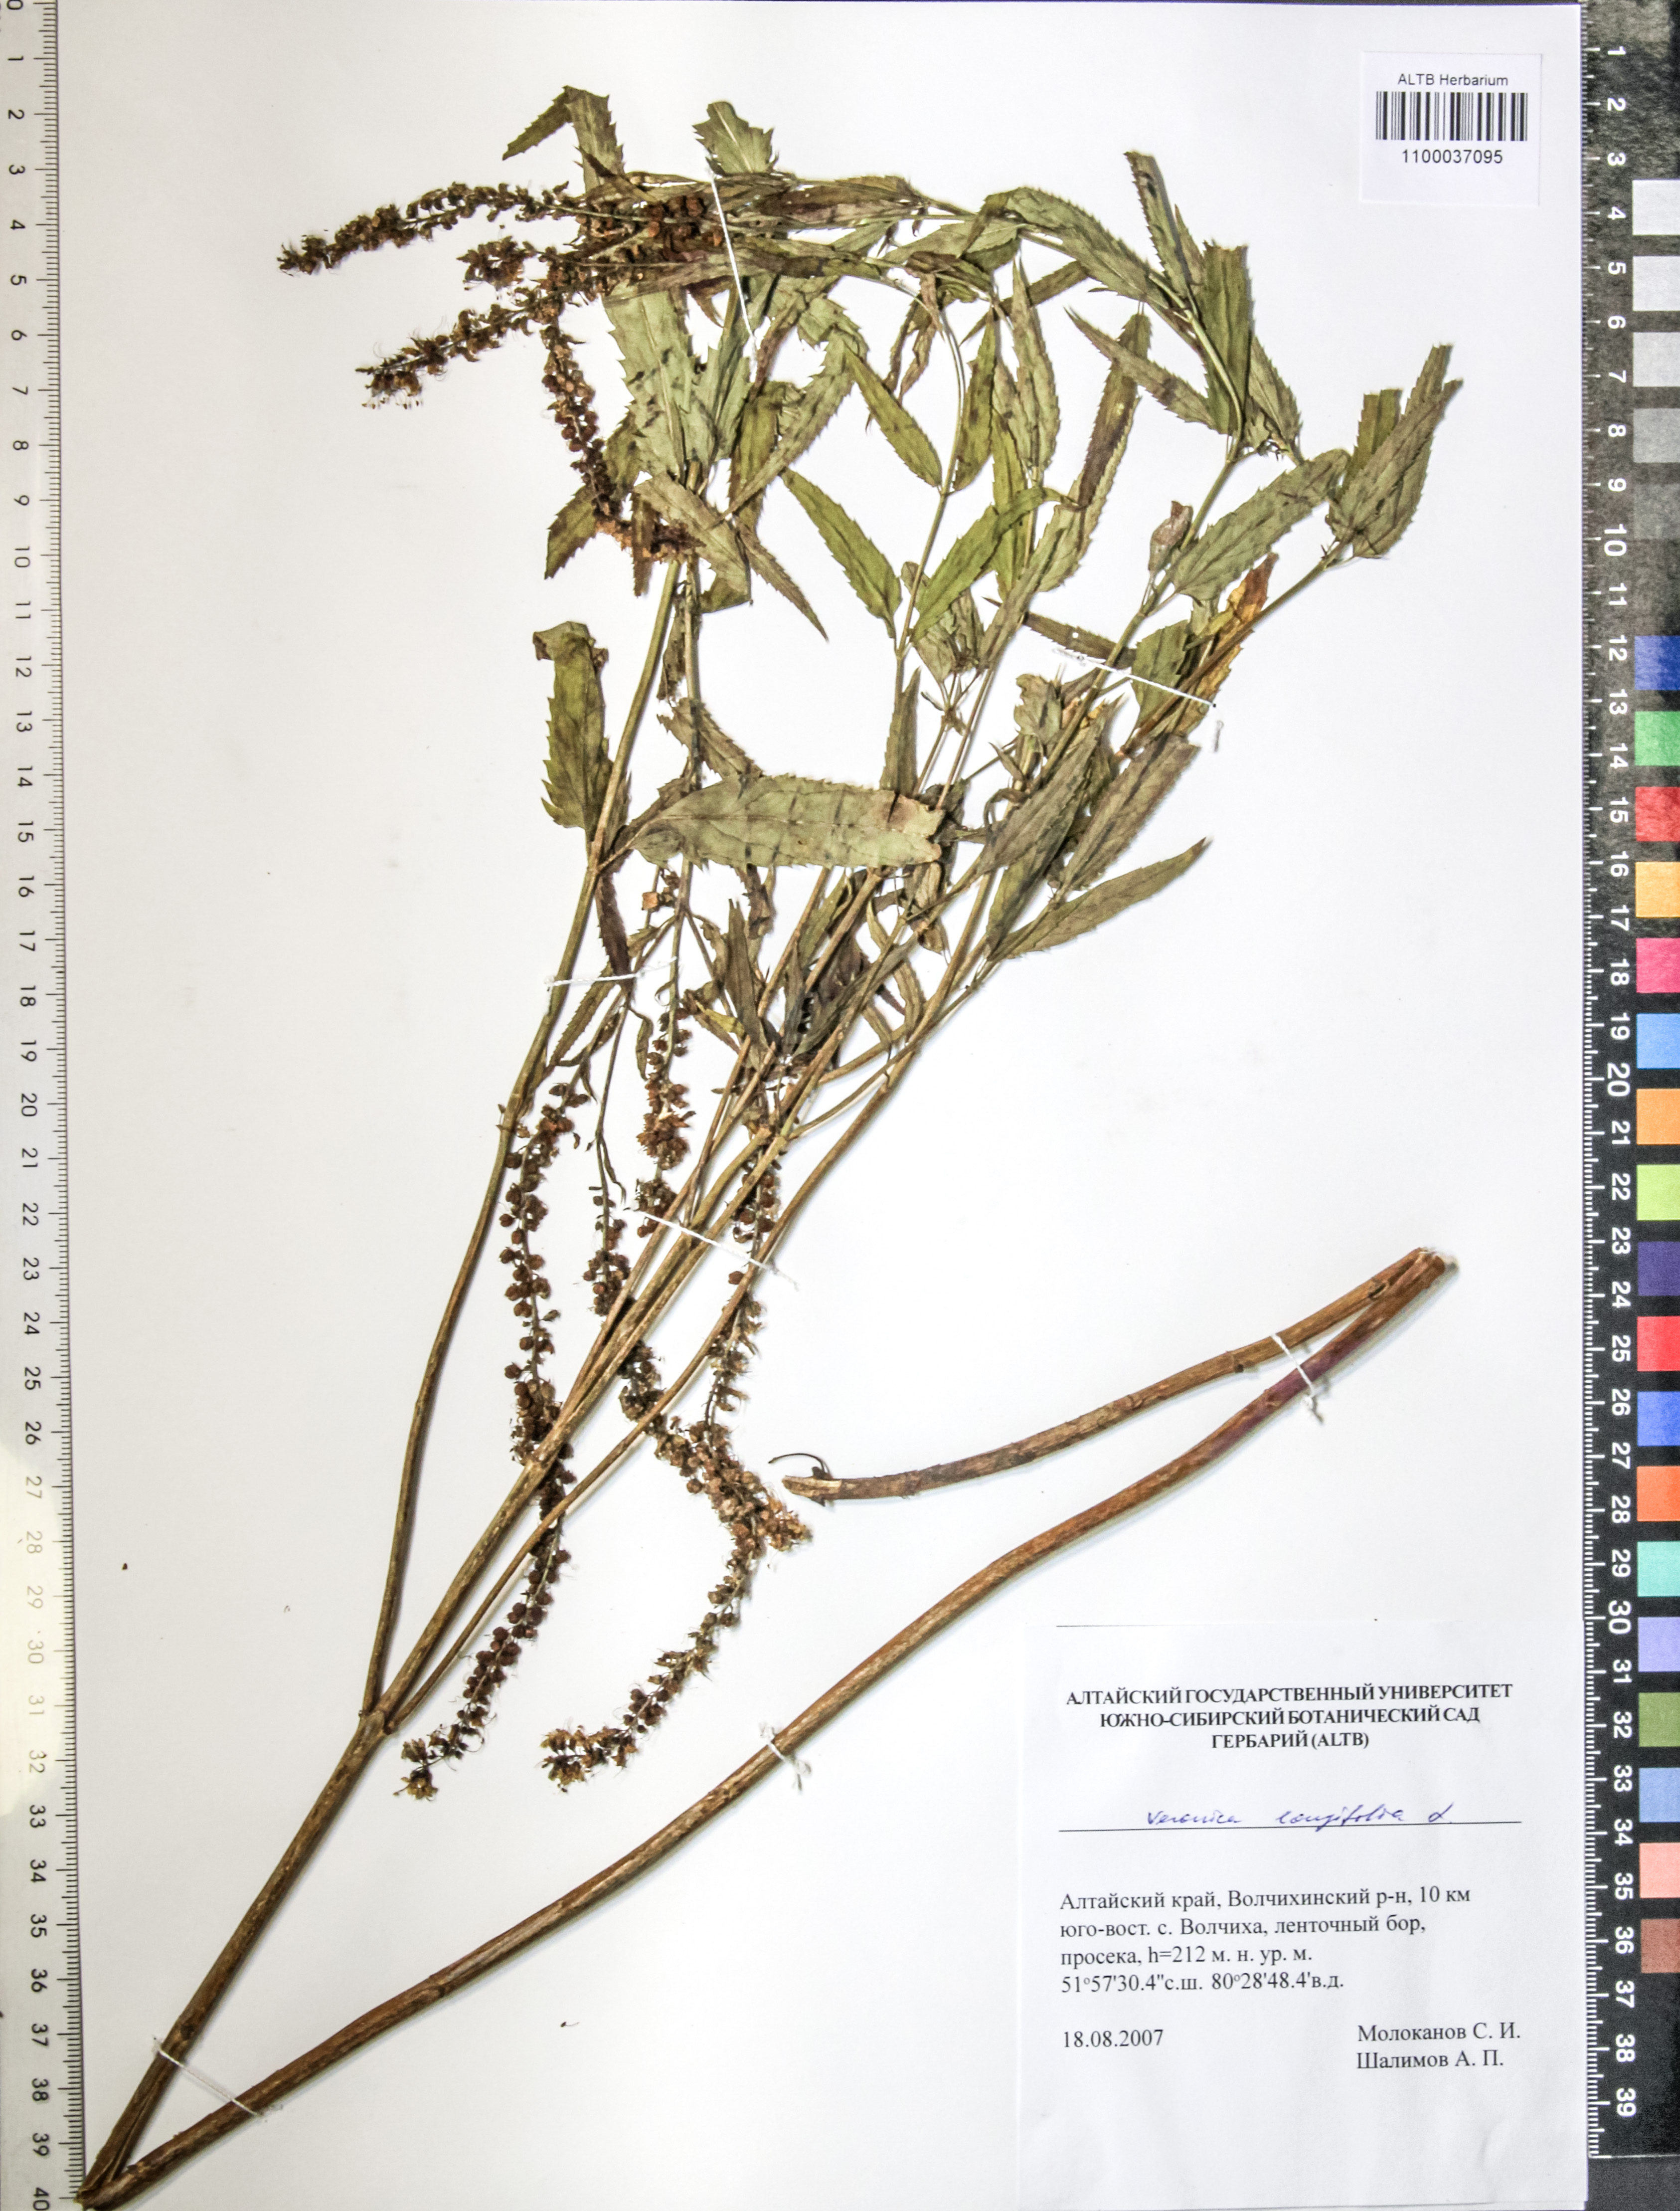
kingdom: Plantae
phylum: Tracheophyta
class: Magnoliopsida
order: Lamiales
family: Plantaginaceae
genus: Veronica
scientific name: Veronica longifolia
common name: Garden speedwell
